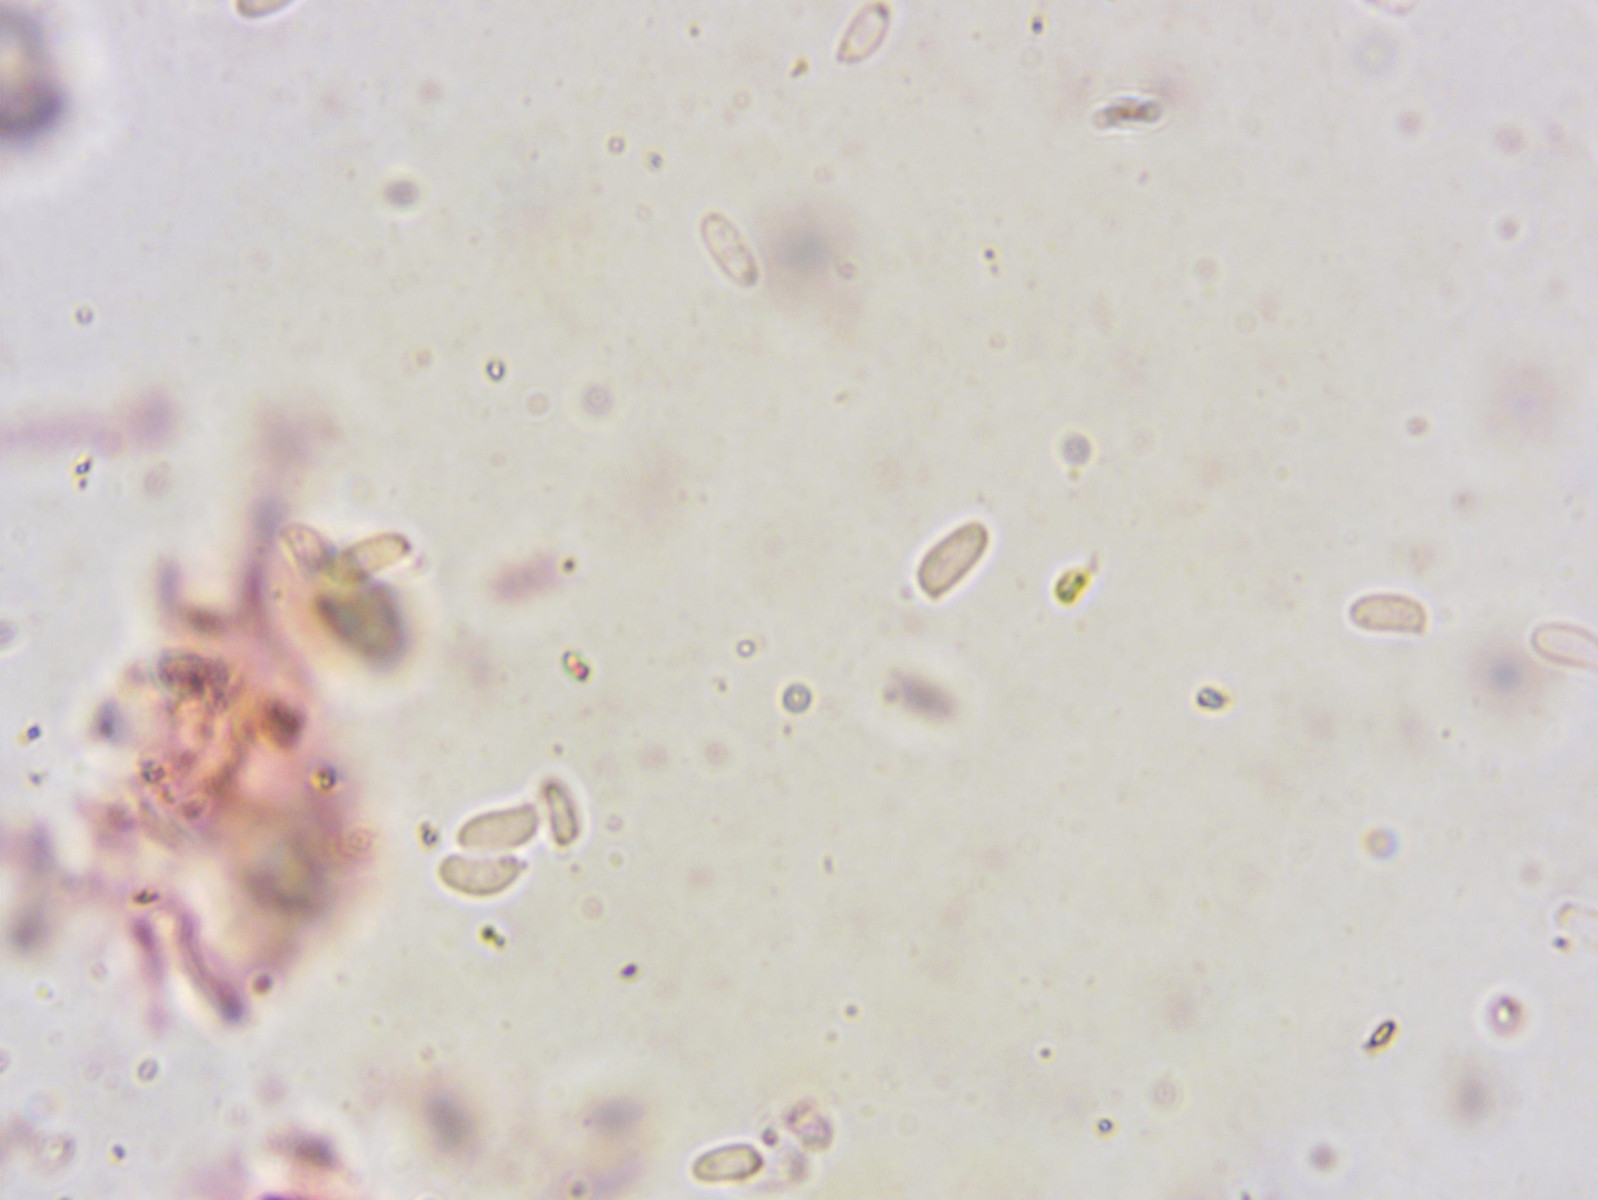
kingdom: Fungi
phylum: Basidiomycota
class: Agaricomycetes
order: Polyporales
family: Polyporaceae
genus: Rhodonia
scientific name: Rhodonia placenta
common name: rosaporesvamp
